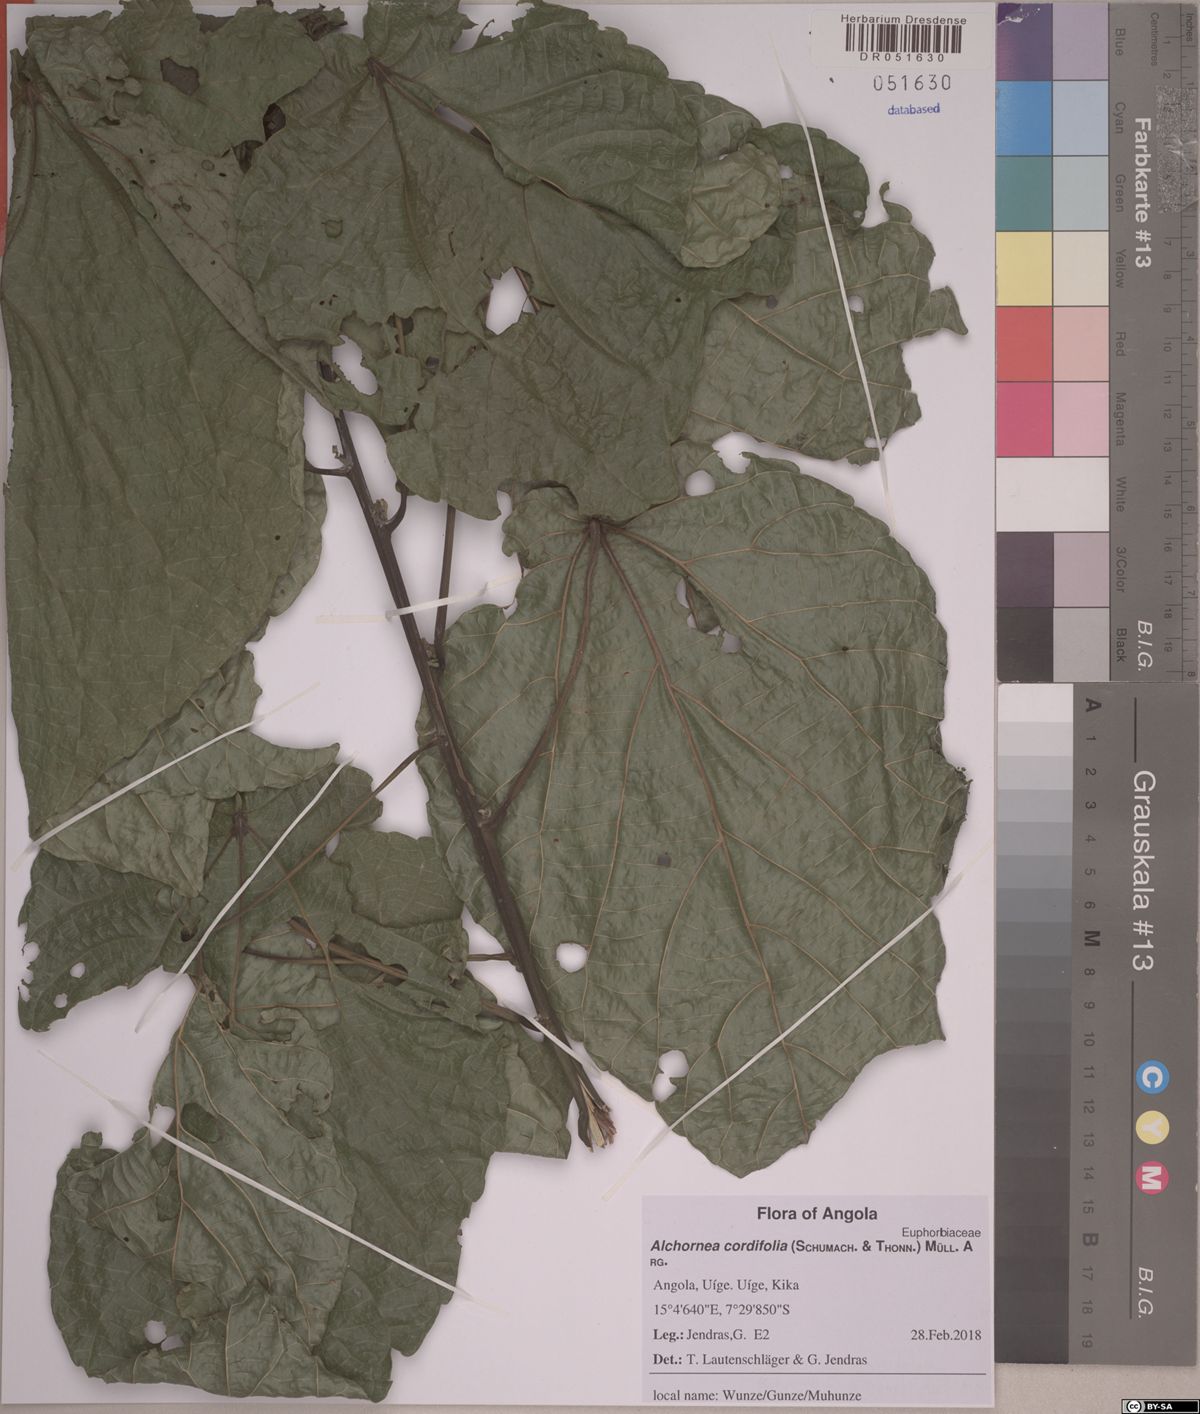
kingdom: Plantae
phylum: Tracheophyta
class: Magnoliopsida
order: Malpighiales
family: Euphorbiaceae
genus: Alchornea
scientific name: Alchornea cordifolia
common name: Christmasbush
